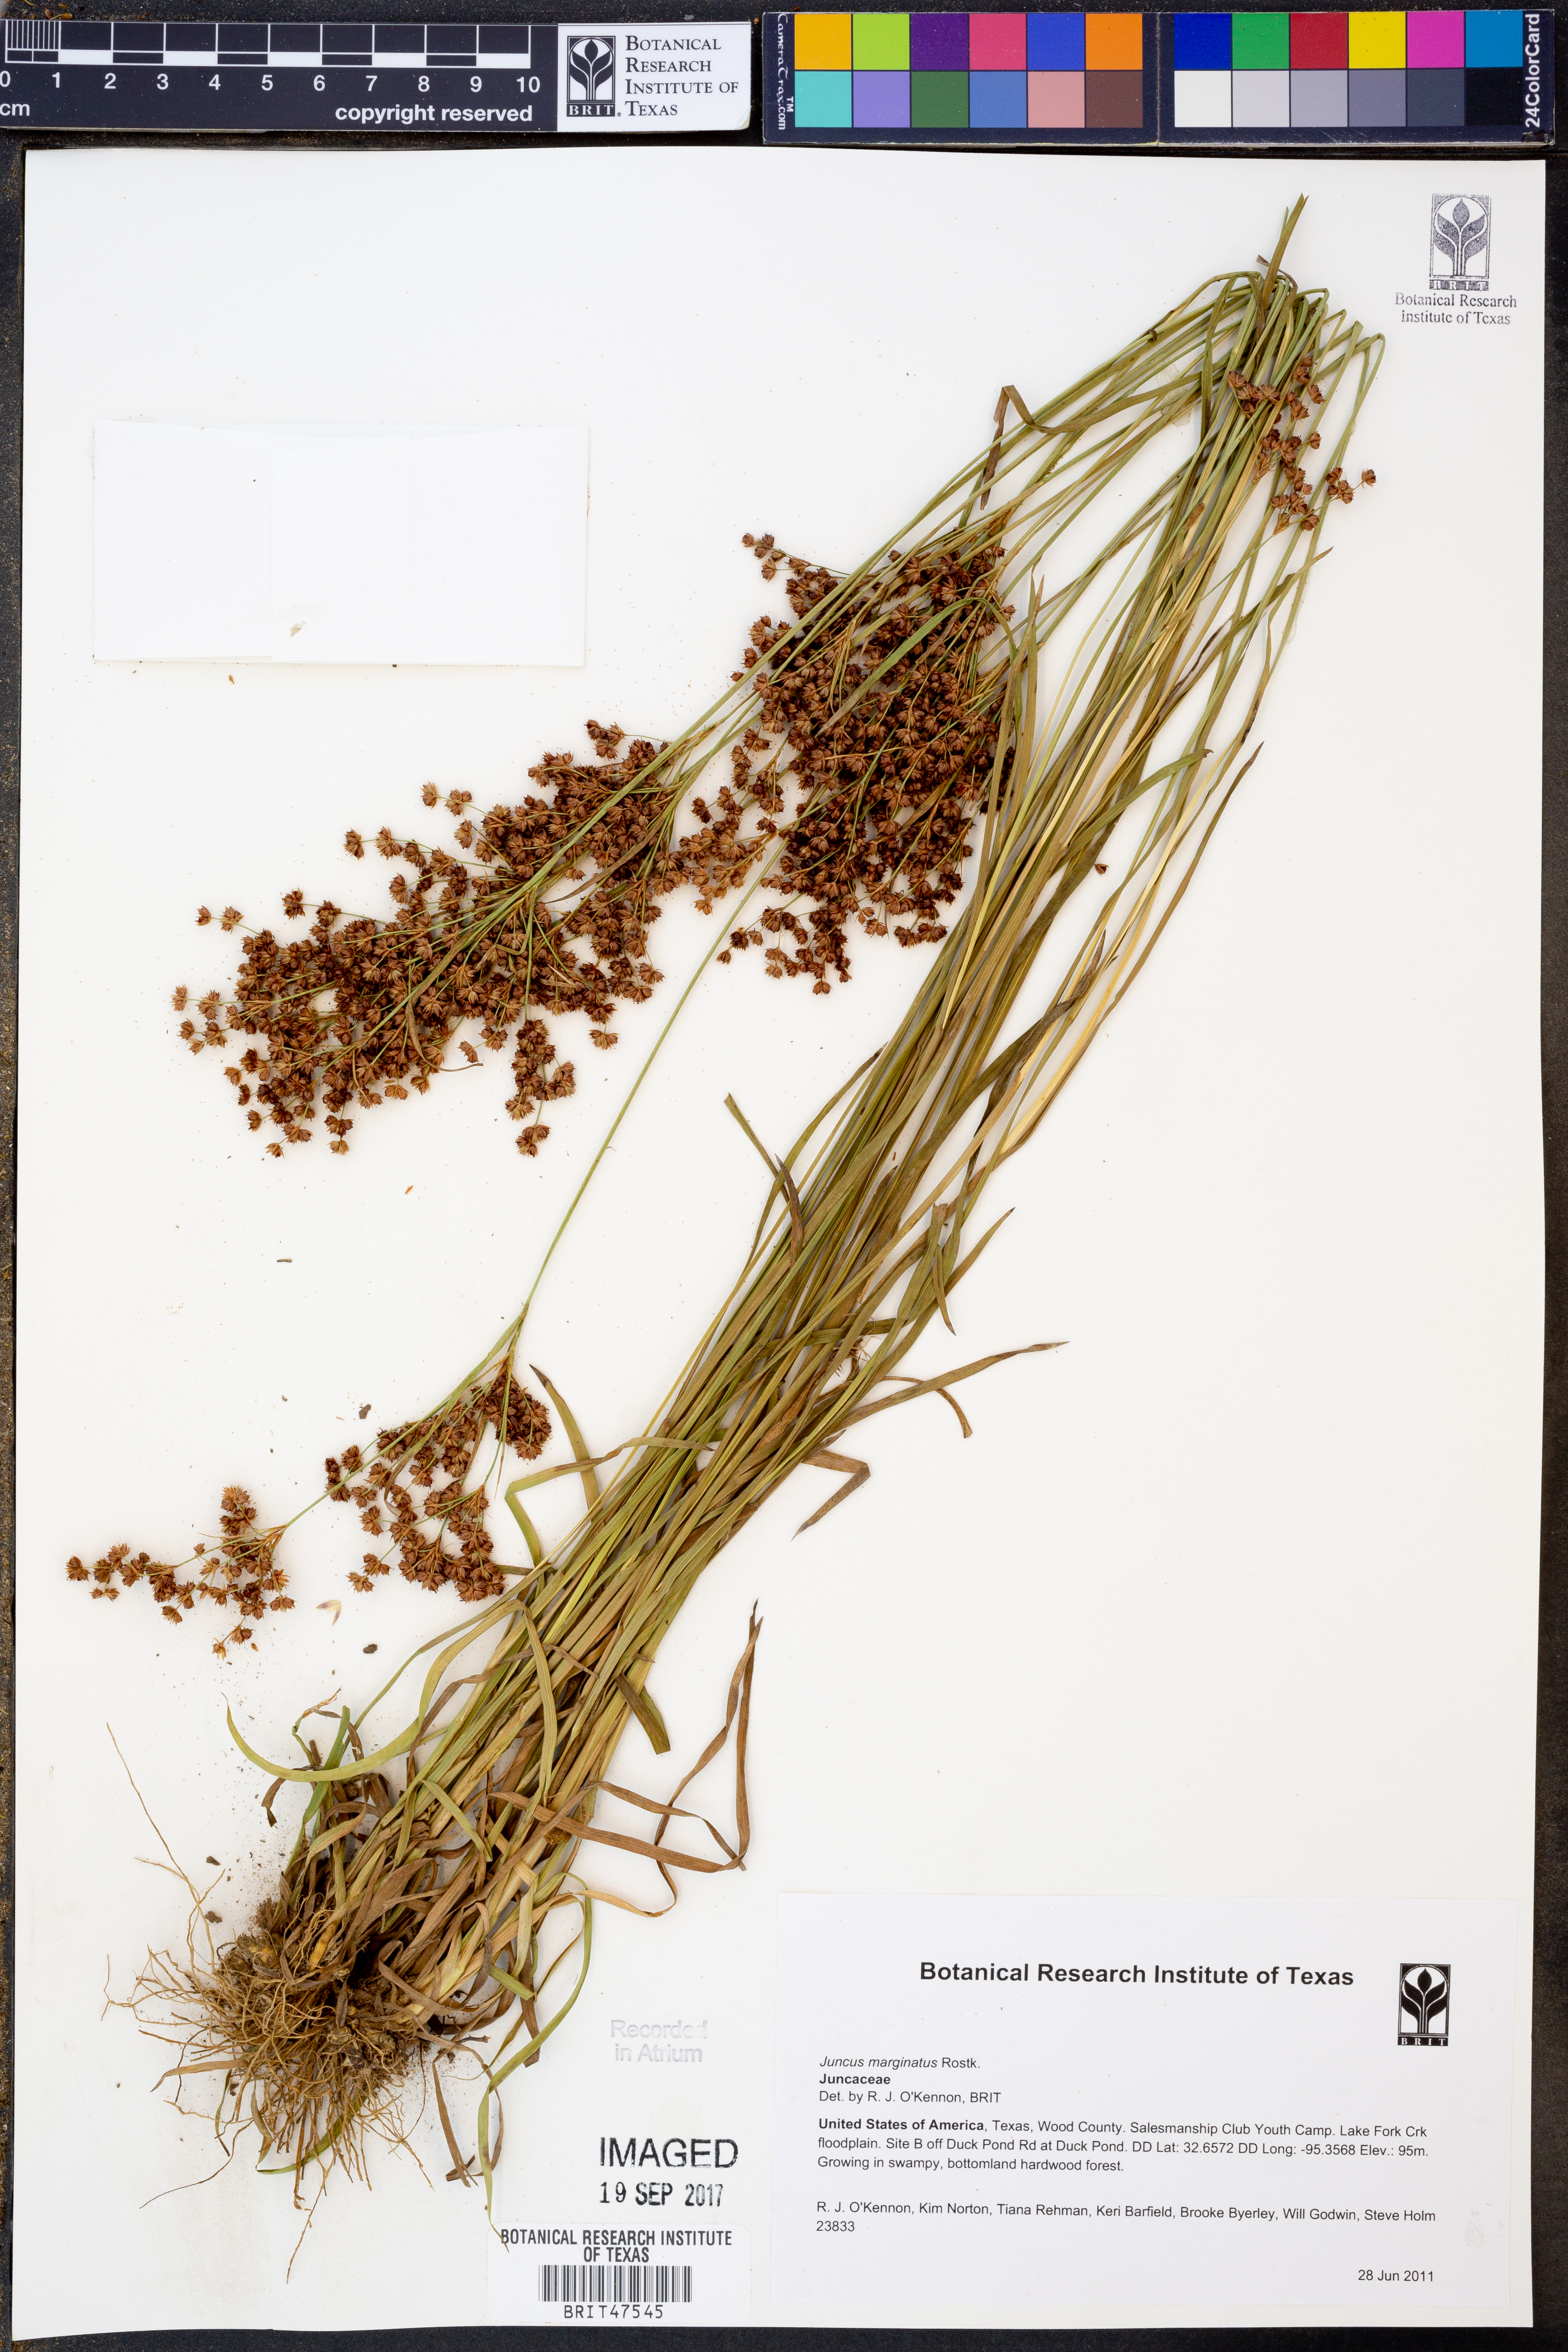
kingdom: Plantae
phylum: Tracheophyta
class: Liliopsida
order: Poales
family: Juncaceae
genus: Juncus
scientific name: Juncus marginatus
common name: Grass-leaf rush
